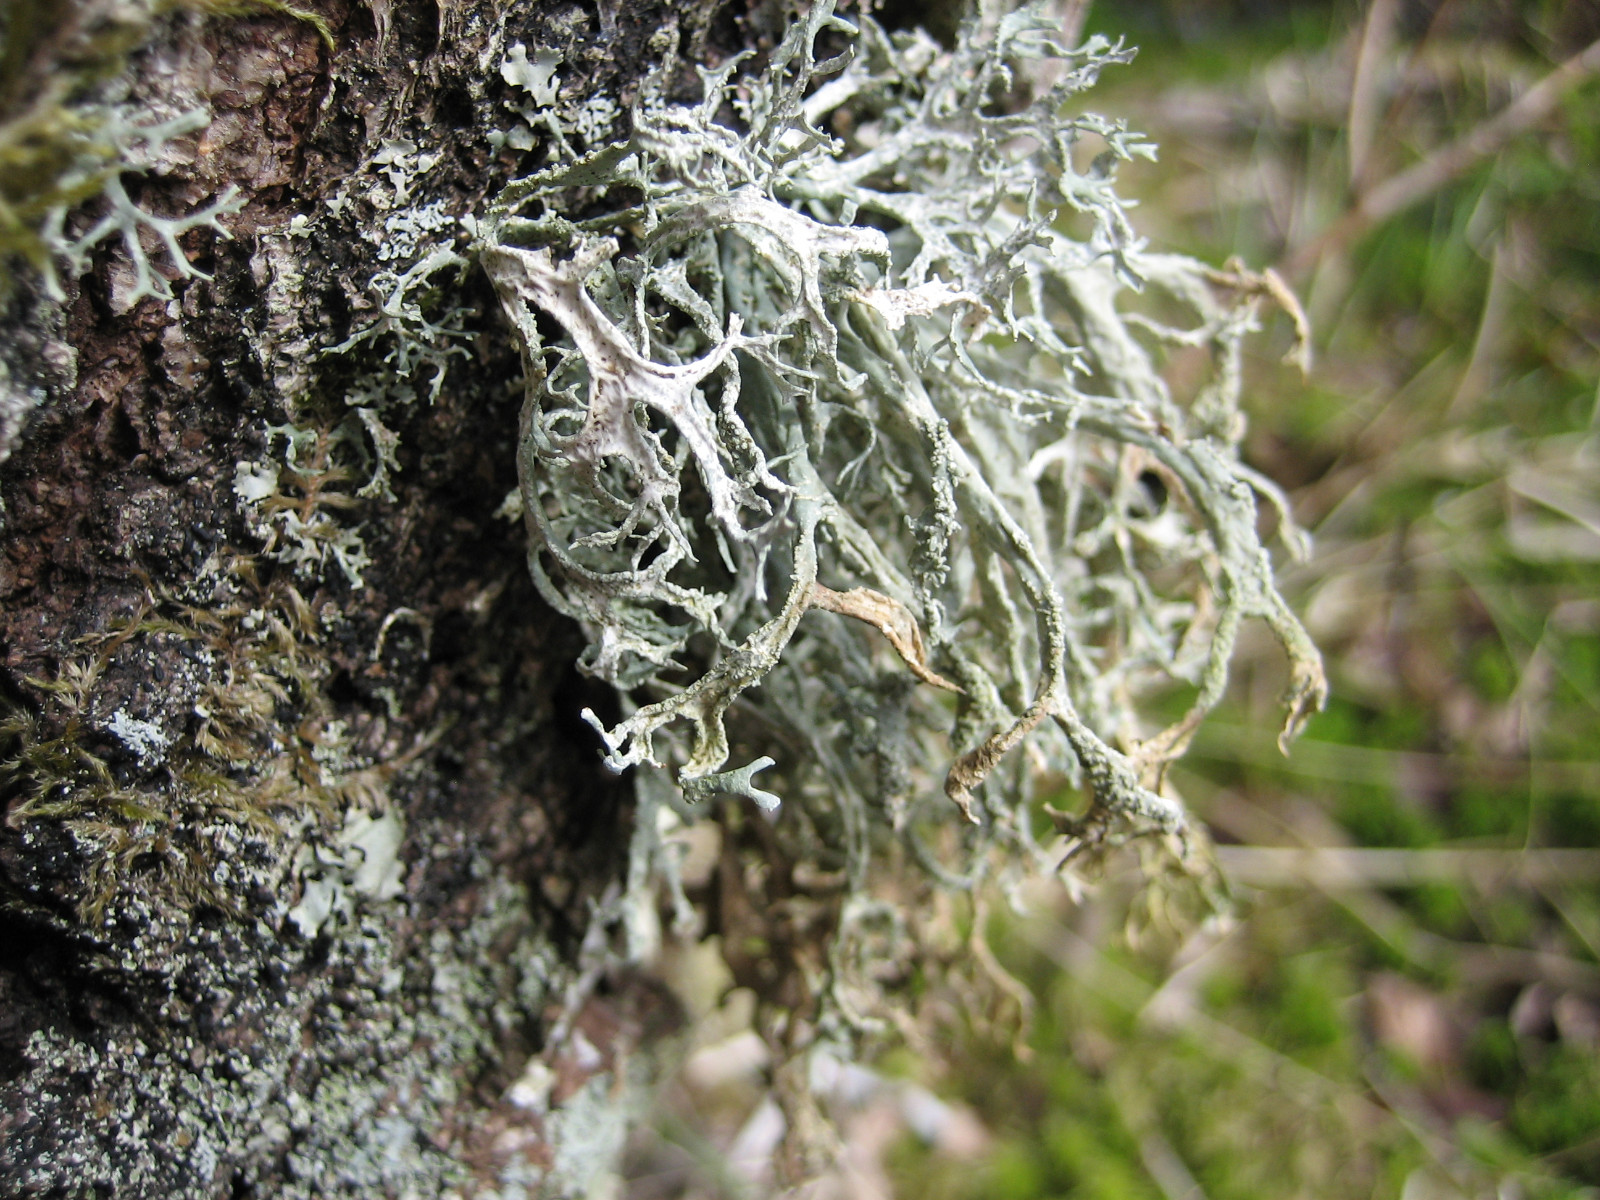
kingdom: Fungi
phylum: Ascomycota
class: Lecanoromycetes
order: Lecanorales
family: Parmeliaceae
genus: Evernia
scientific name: Evernia prunastri
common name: almindelig slåenlav
